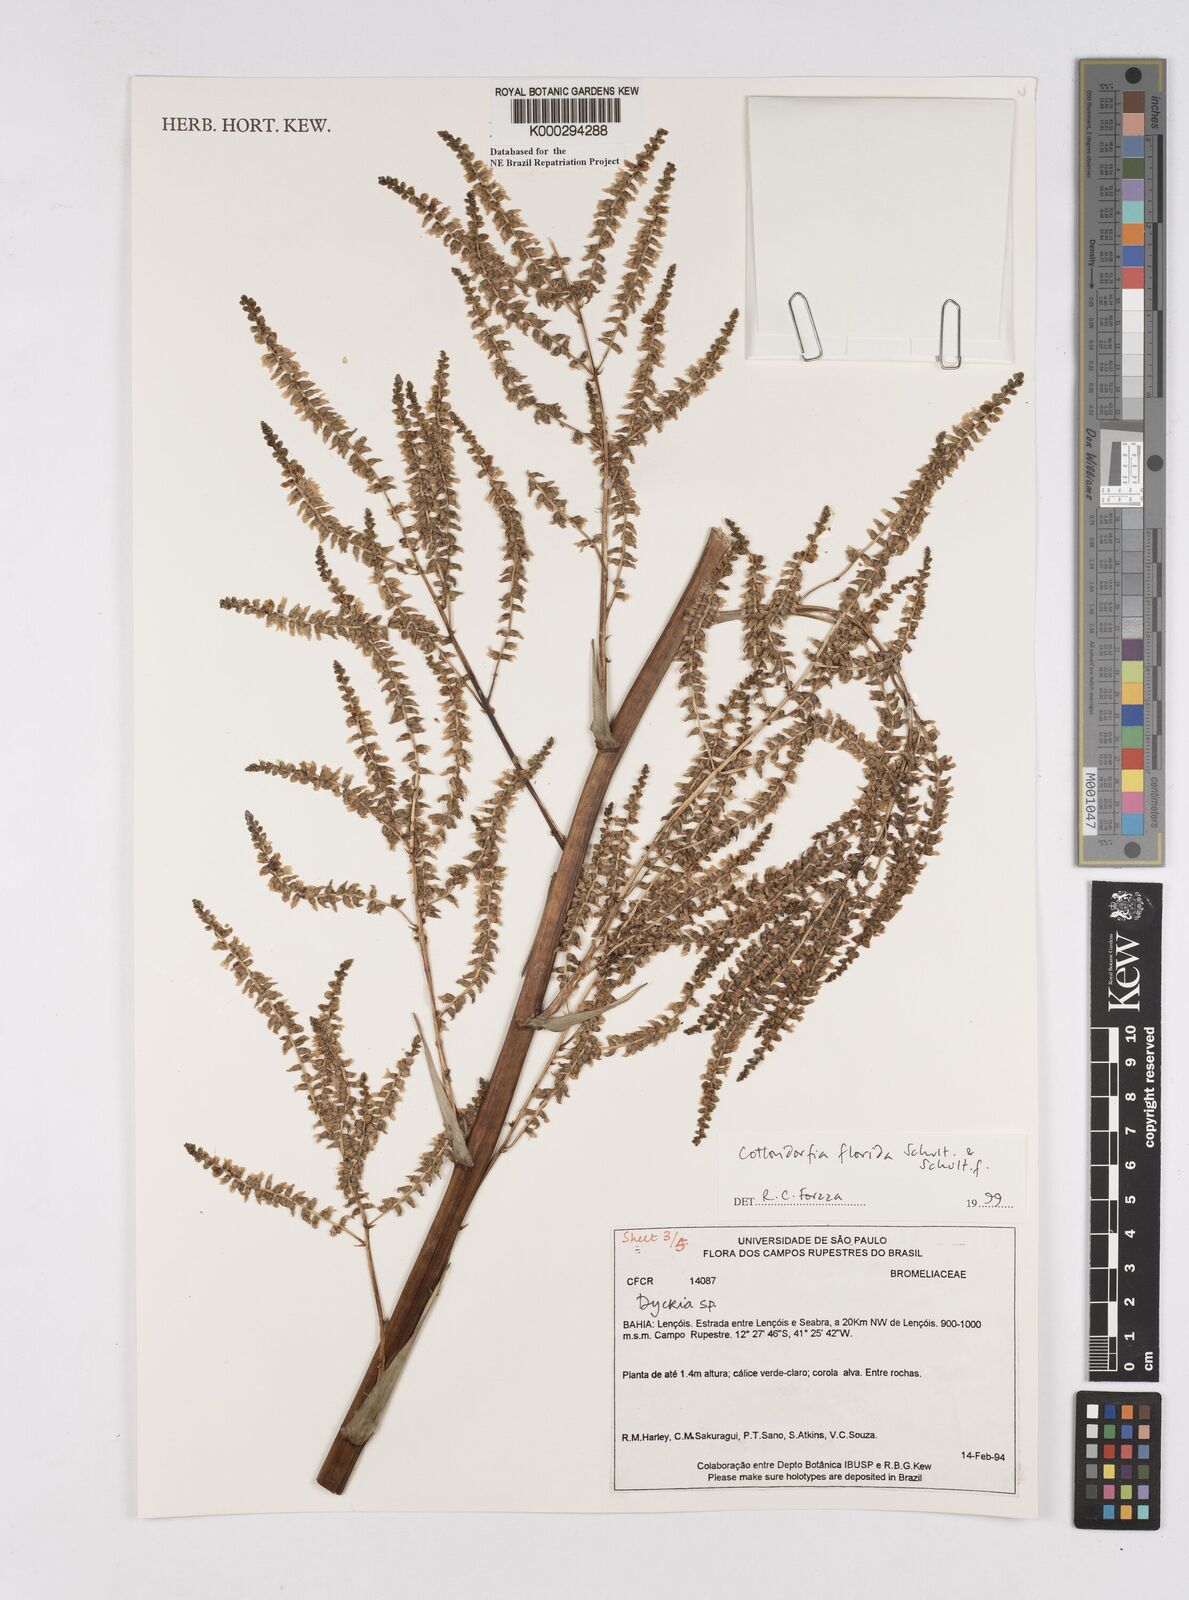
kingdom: Plantae
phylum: Tracheophyta
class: Liliopsida
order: Poales
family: Bromeliaceae
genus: Cottendorfia
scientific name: Cottendorfia florida
